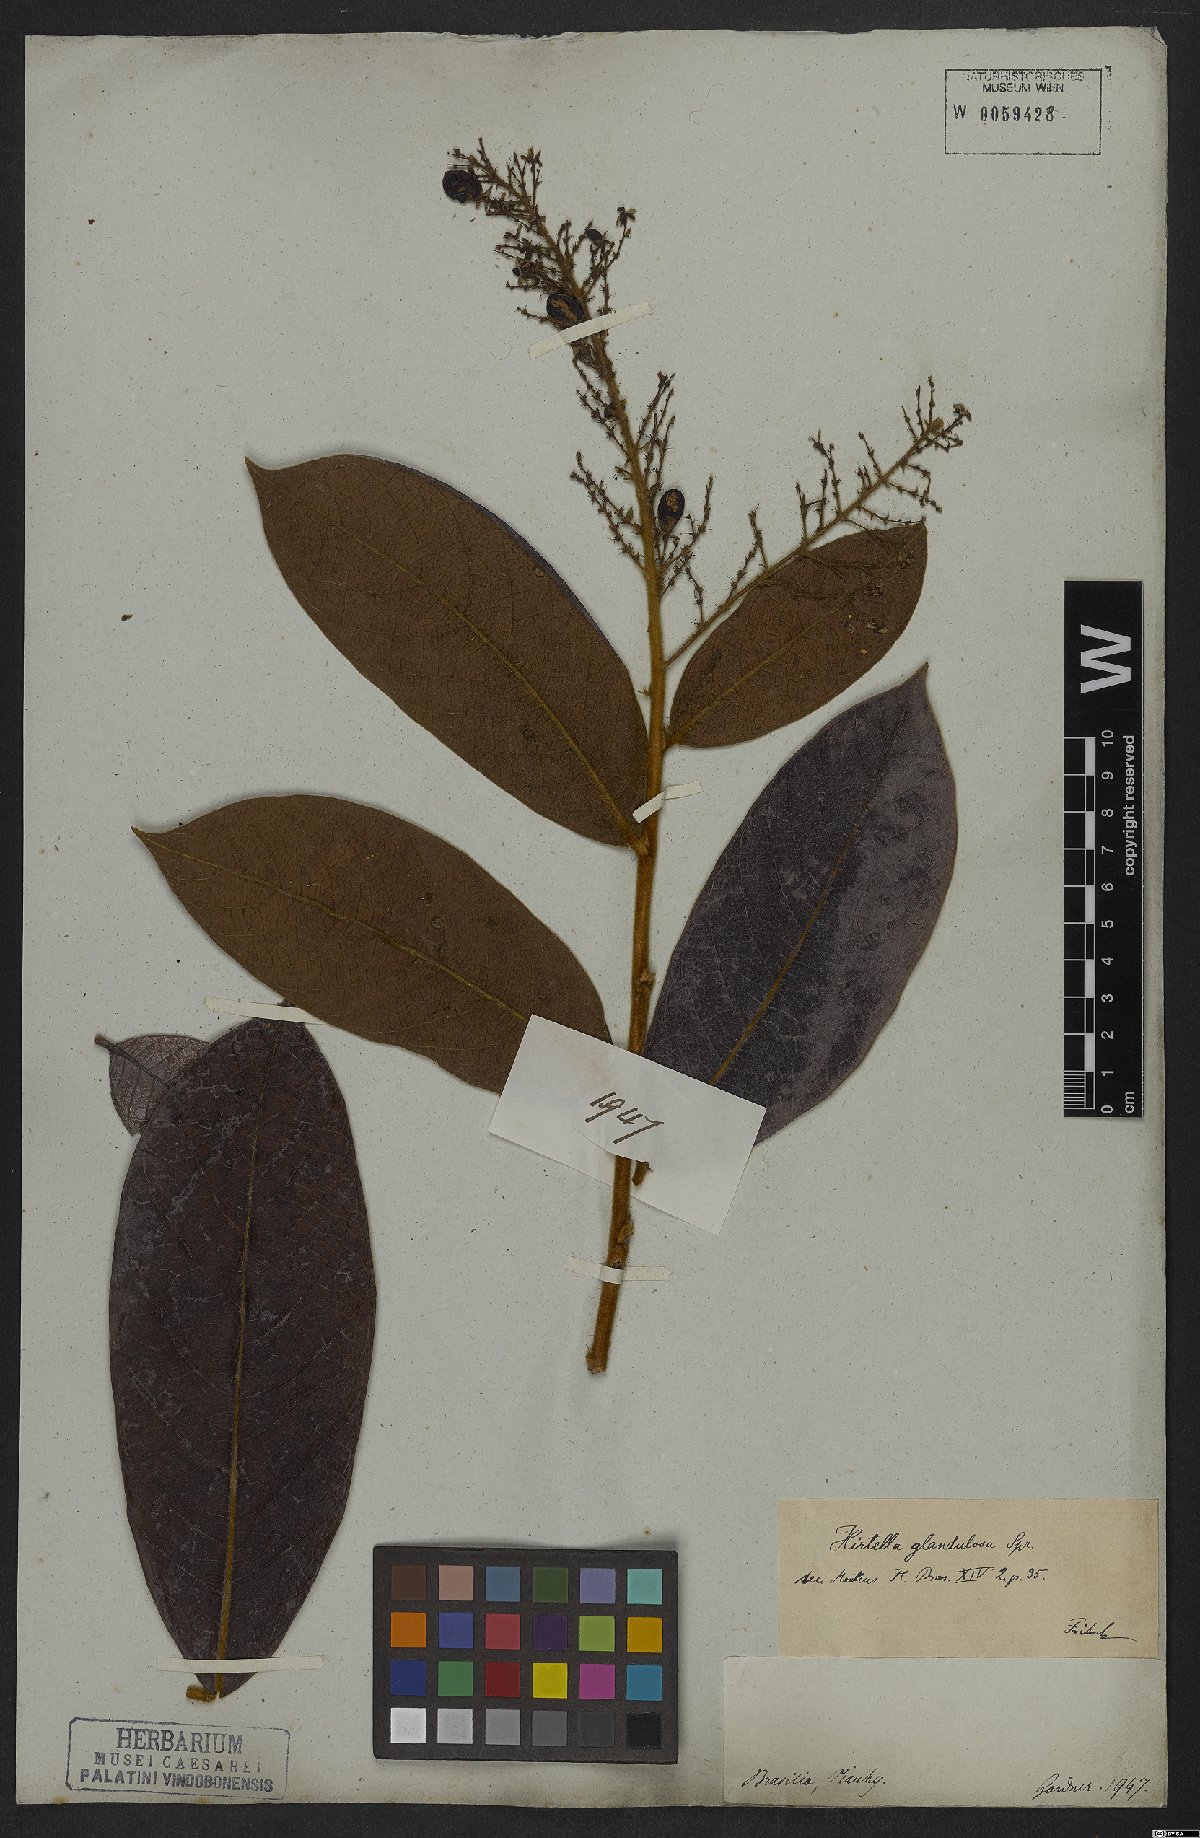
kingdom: Plantae
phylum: Tracheophyta
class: Magnoliopsida
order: Malpighiales
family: Chrysobalanaceae
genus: Hirtella
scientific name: Hirtella glandulosa
